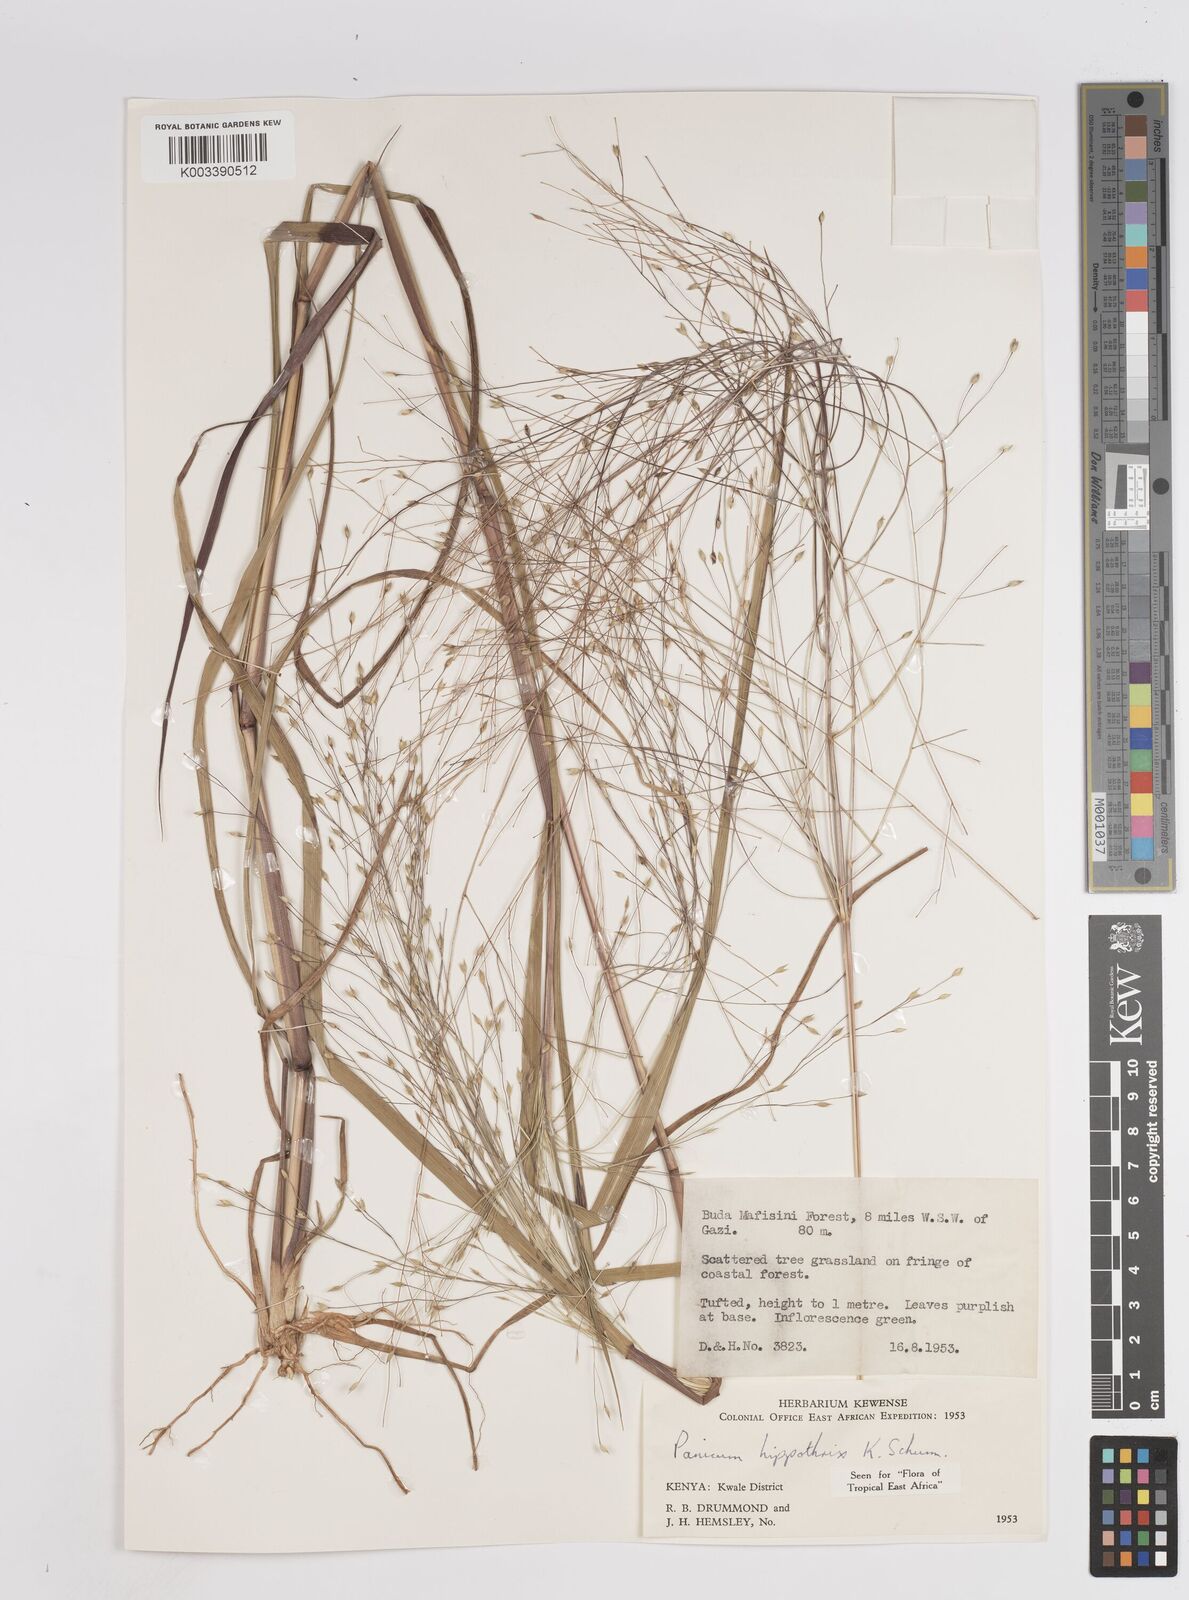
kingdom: Plantae
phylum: Tracheophyta
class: Liliopsida
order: Poales
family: Poaceae
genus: Panicum
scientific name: Panicum hippothrix
